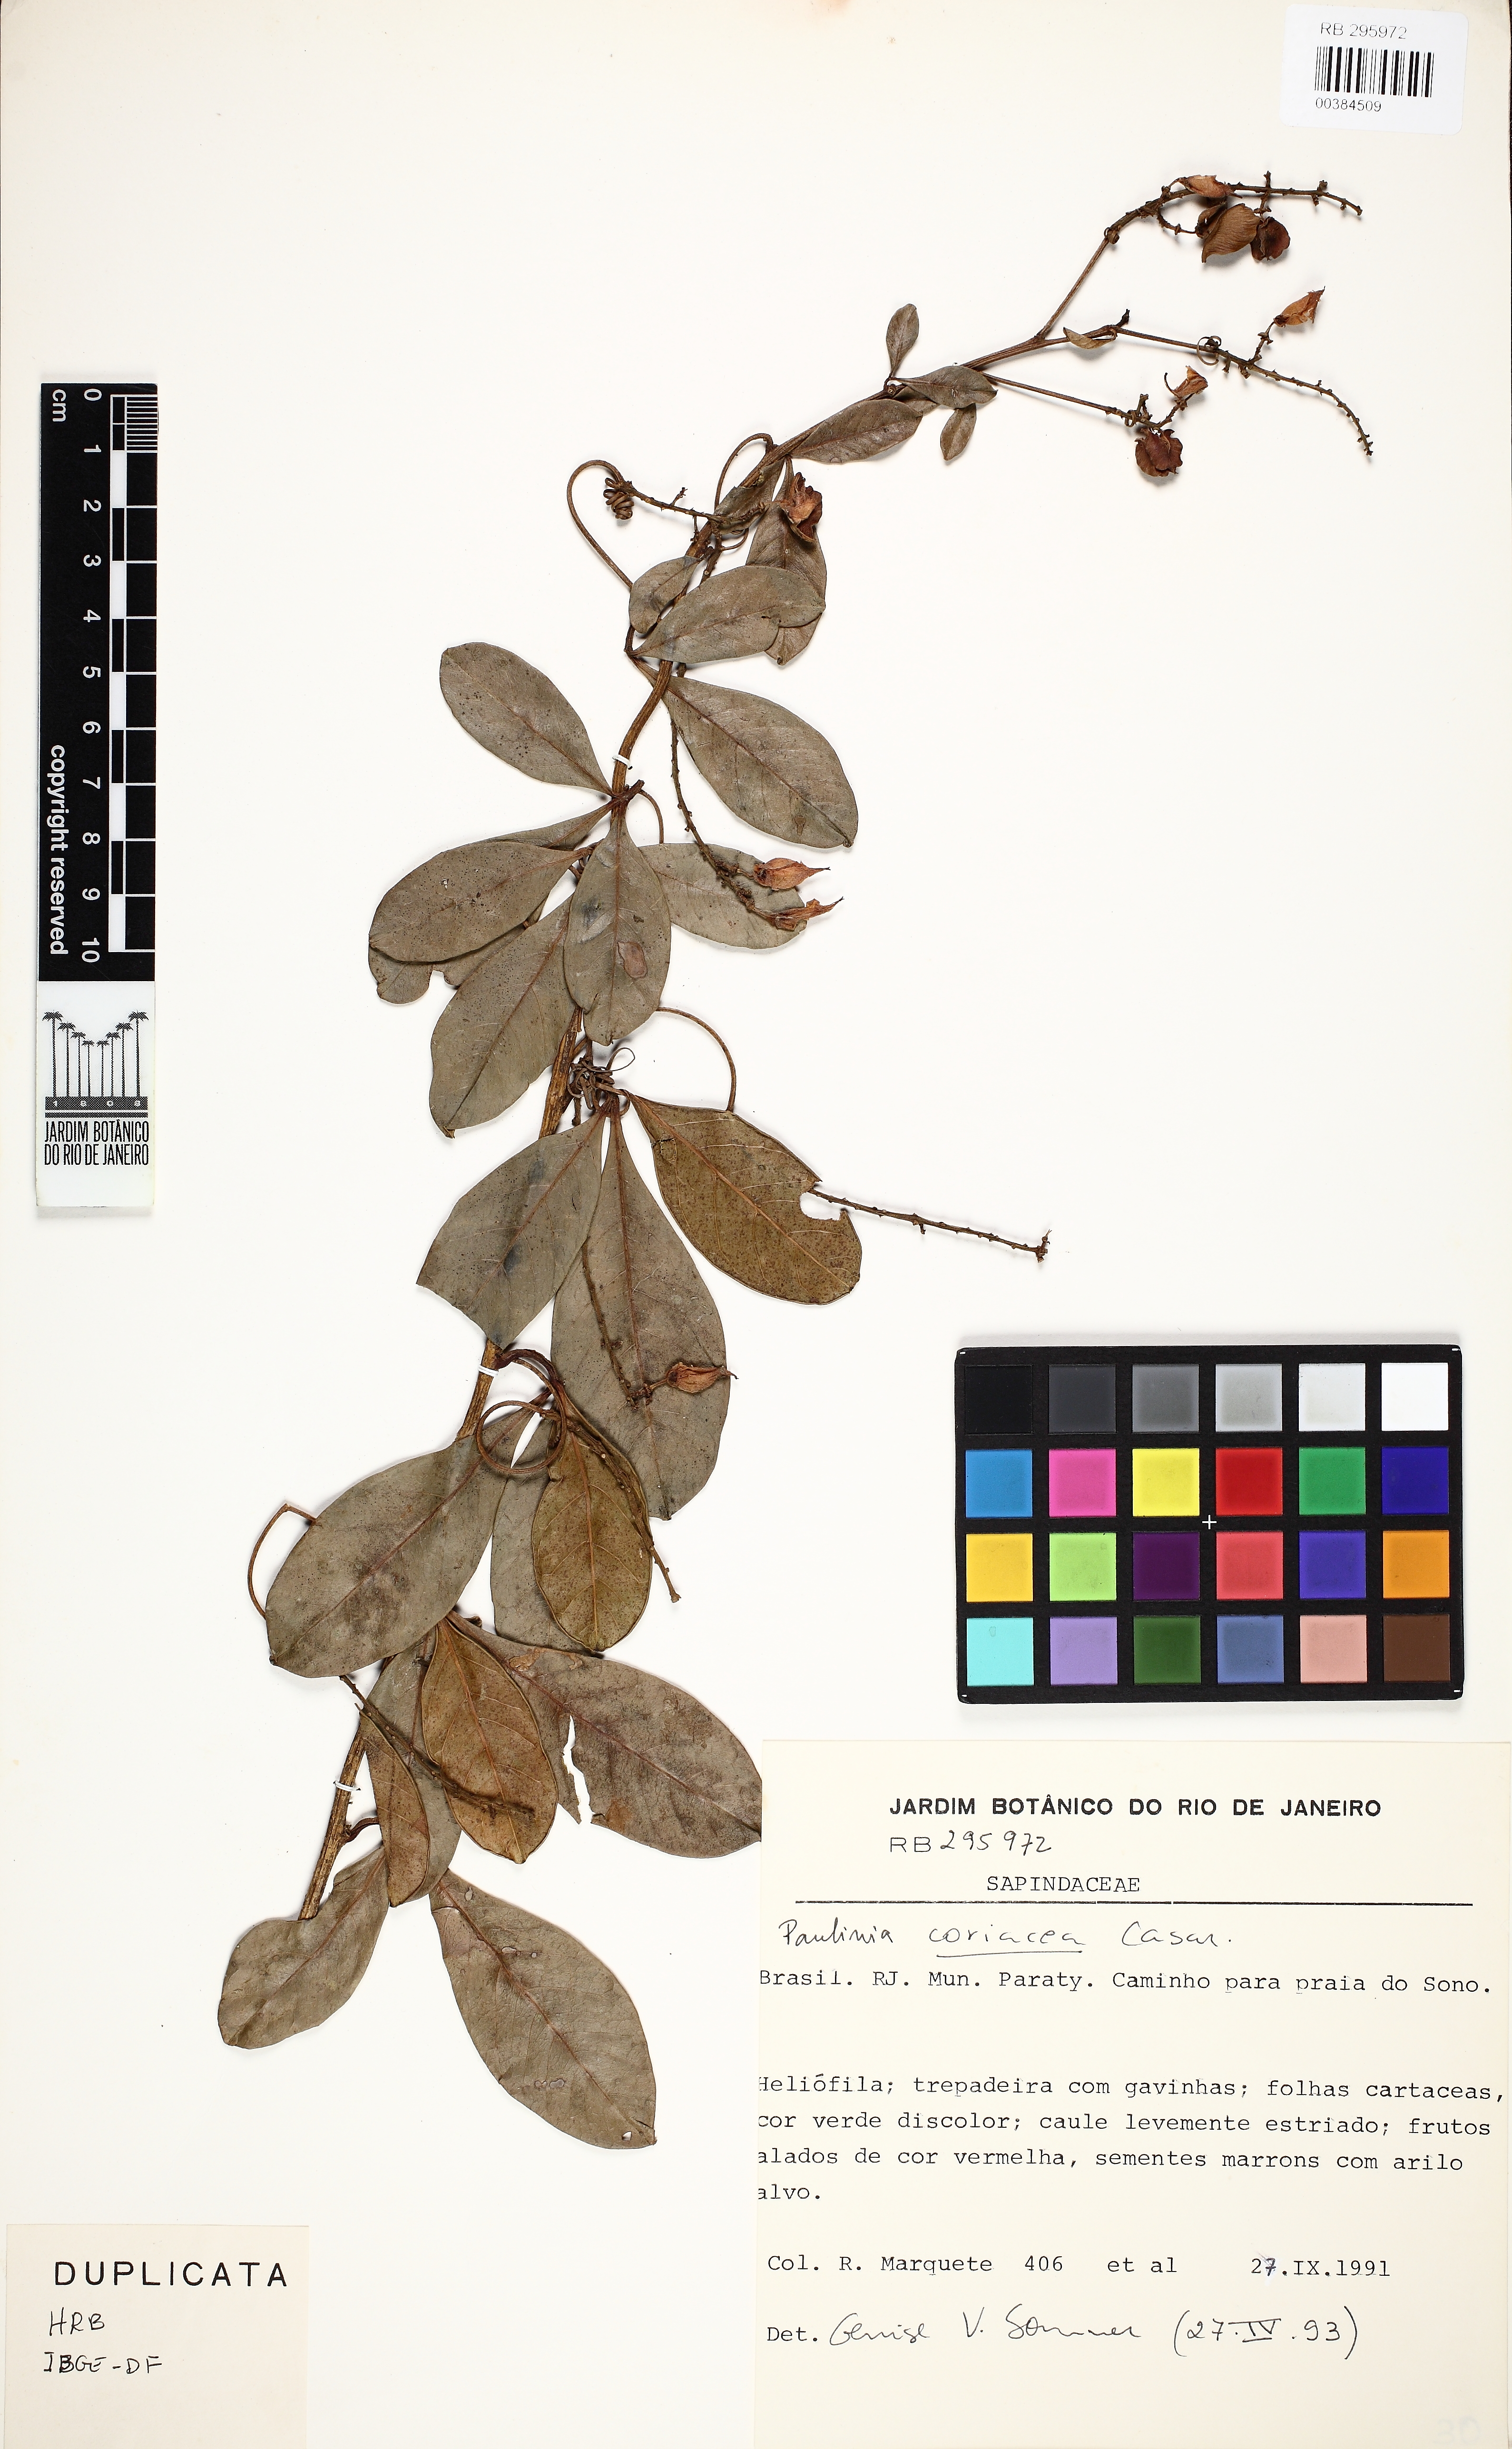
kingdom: Plantae
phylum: Tracheophyta
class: Magnoliopsida
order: Sapindales
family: Sapindaceae
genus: Paullinia
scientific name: Paullinia coriacea
